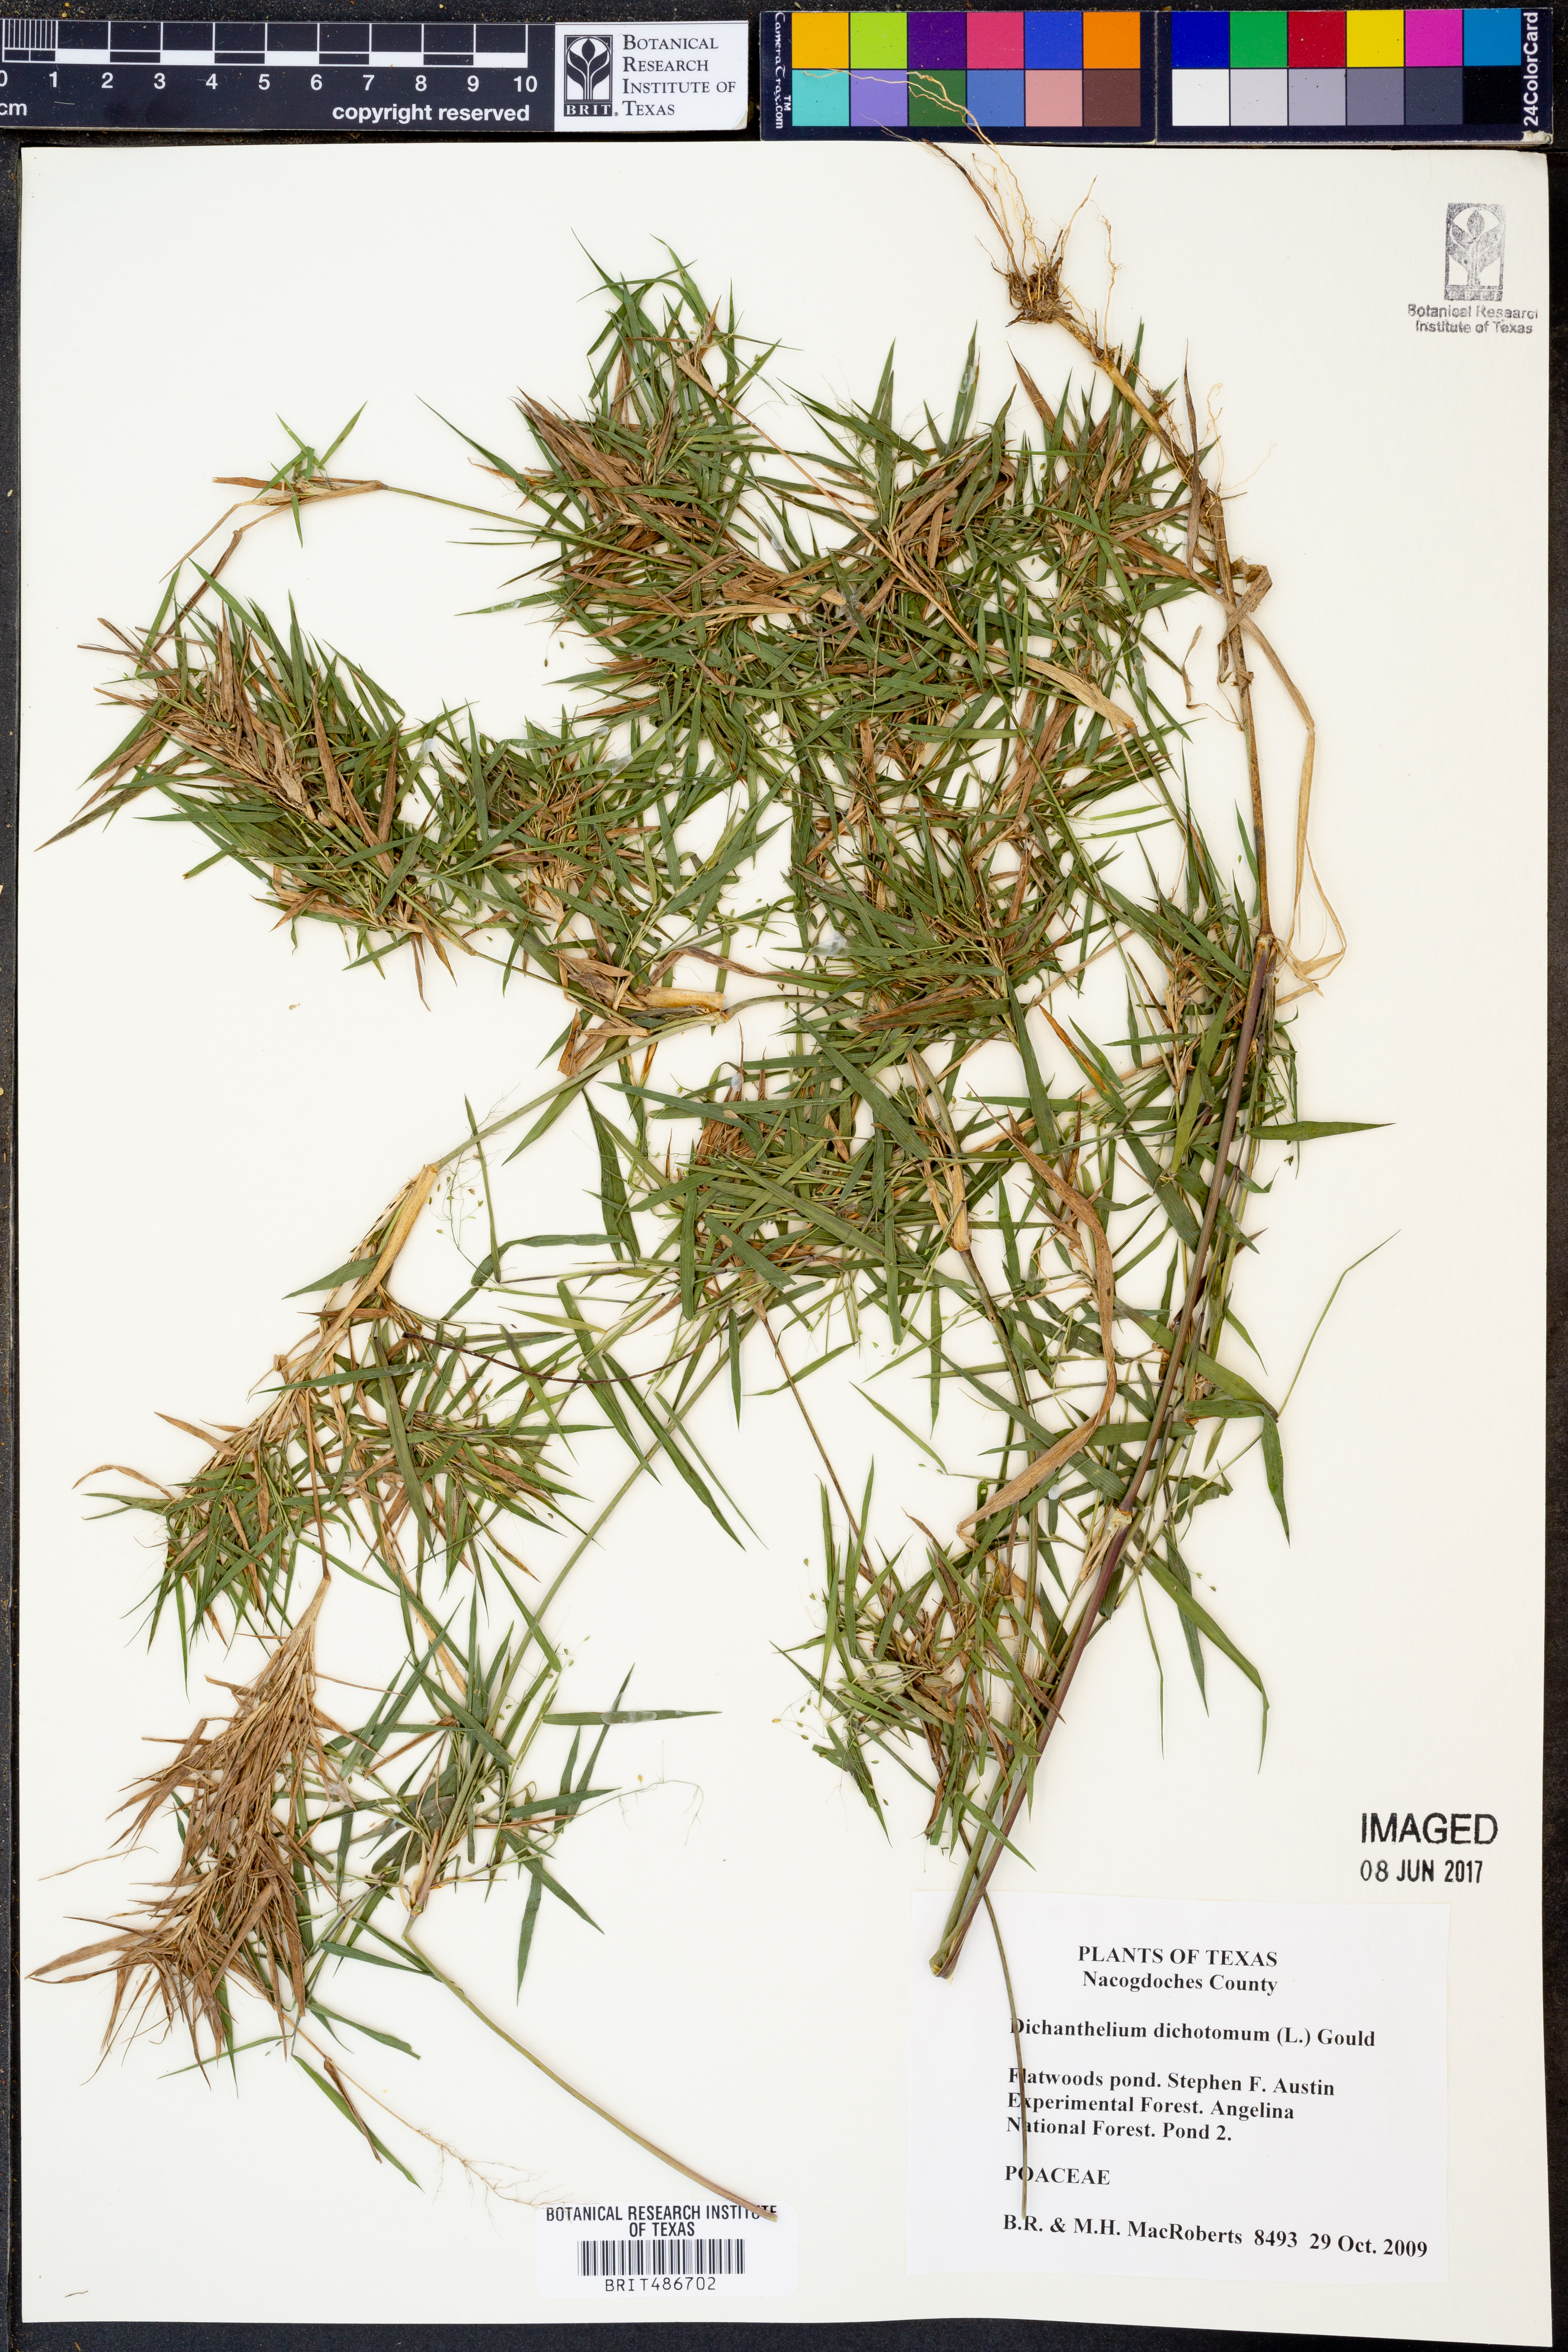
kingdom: Plantae
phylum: Tracheophyta
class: Liliopsida
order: Poales
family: Poaceae
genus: Dichanthelium
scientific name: Dichanthelium dichotomum
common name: Cypress panicgrass
